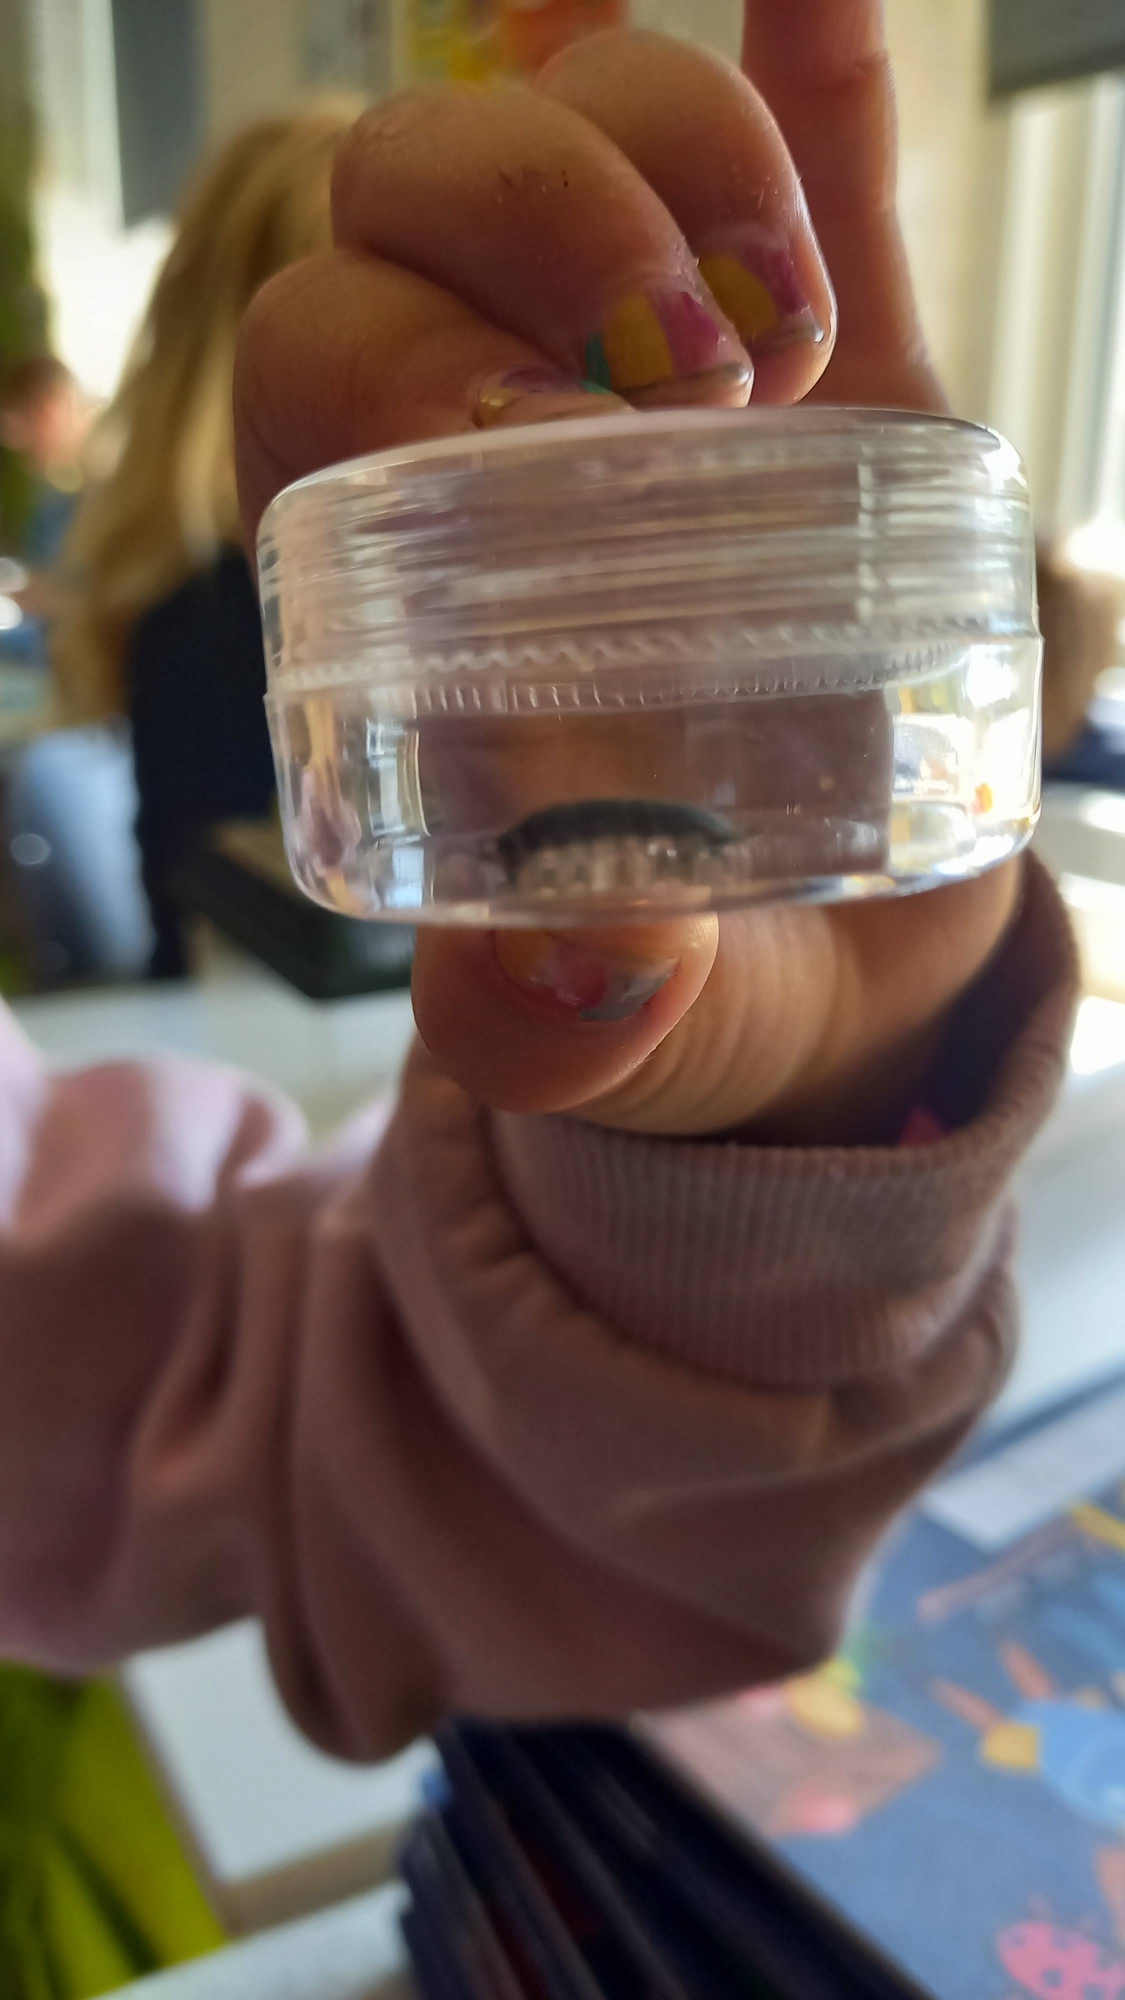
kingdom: Animalia
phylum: Arthropoda
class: Malacostraca
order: Isopoda
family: Porcellionidae
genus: Porcellio
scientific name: Porcellio scaber
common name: Grå bænkebider
